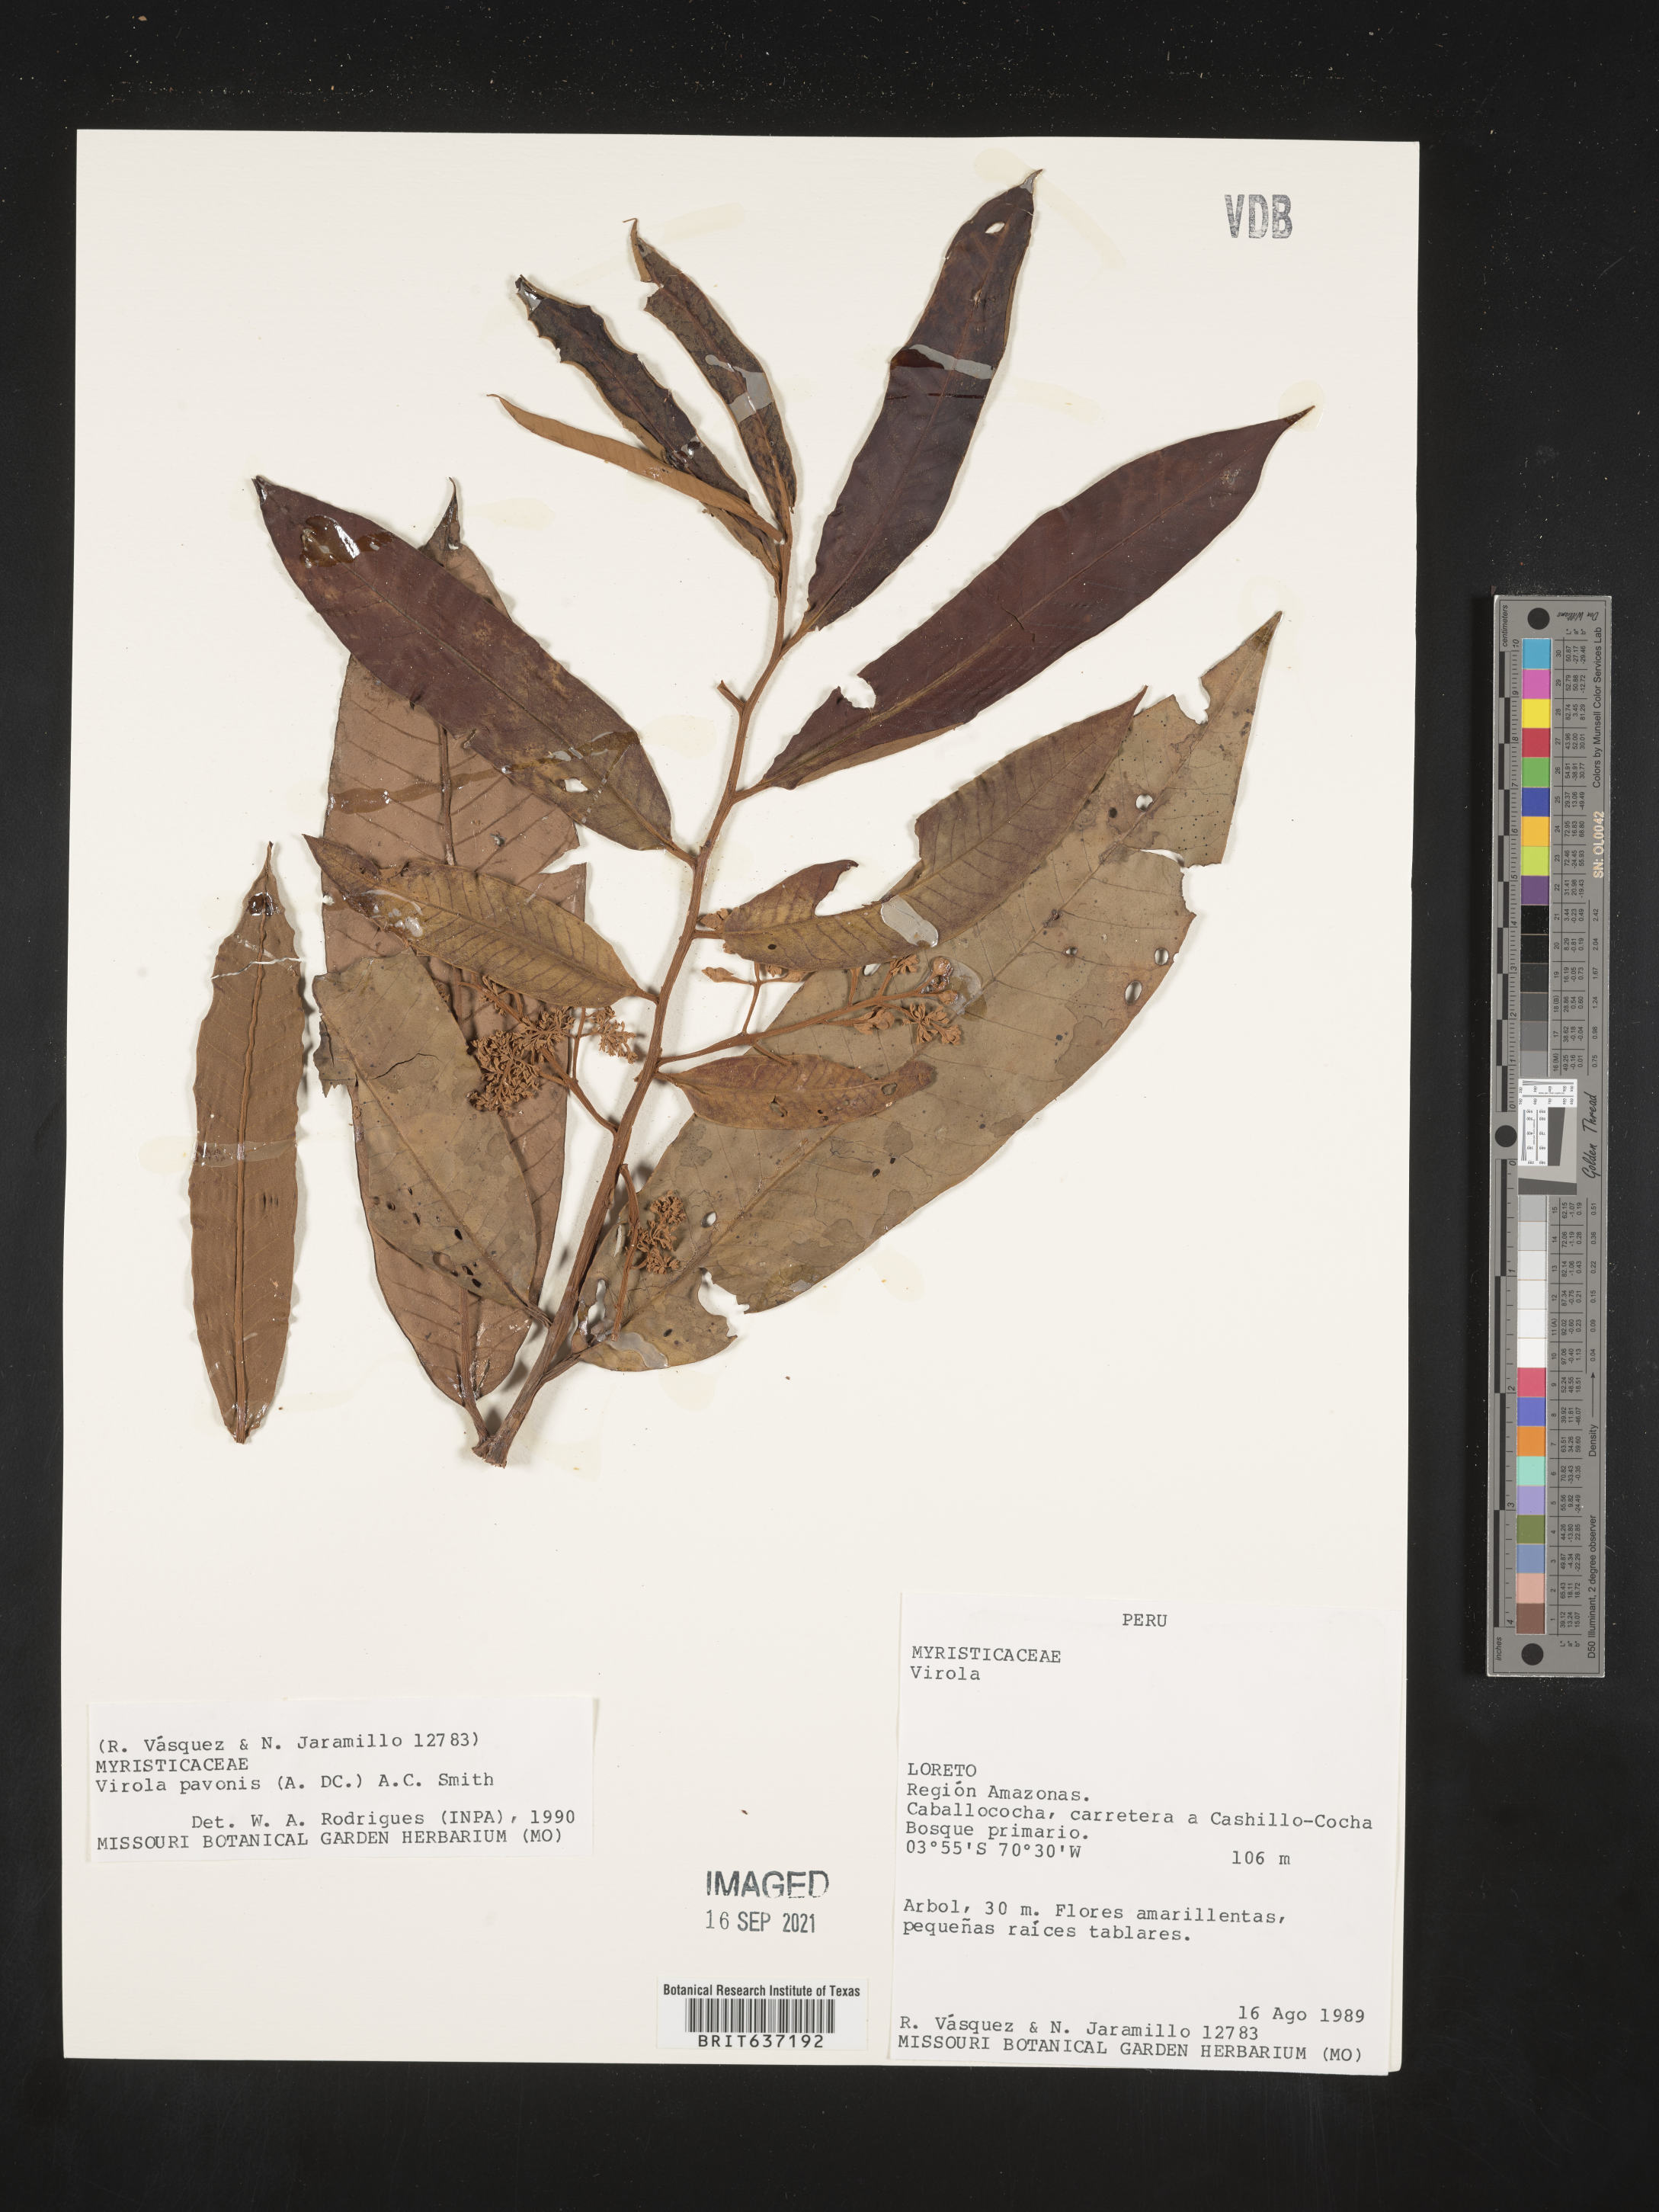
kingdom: Plantae
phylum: Tracheophyta
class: Magnoliopsida
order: Magnoliales
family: Myristicaceae
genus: Virola
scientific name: Virola
